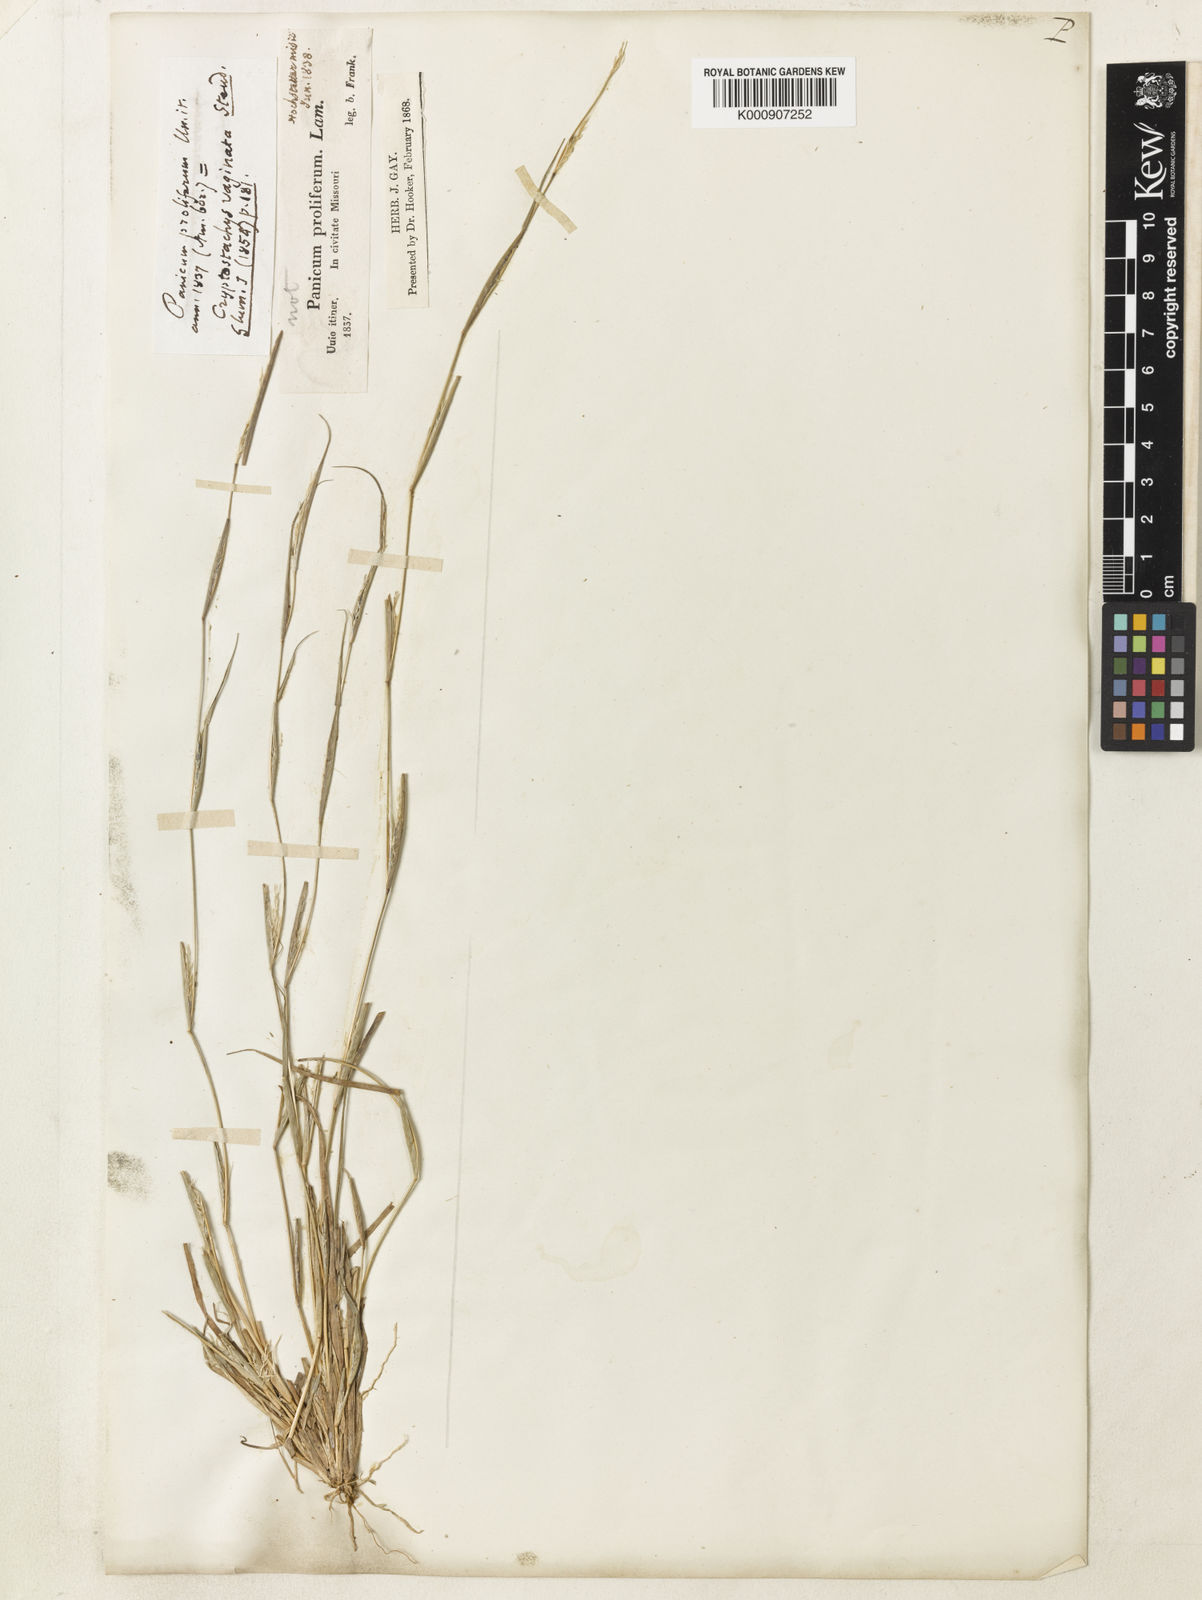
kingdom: Plantae
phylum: Tracheophyta
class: Liliopsida
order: Poales
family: Poaceae
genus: Sporobolus
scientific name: Sporobolus vaginiflorus
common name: Poverty dropseed
